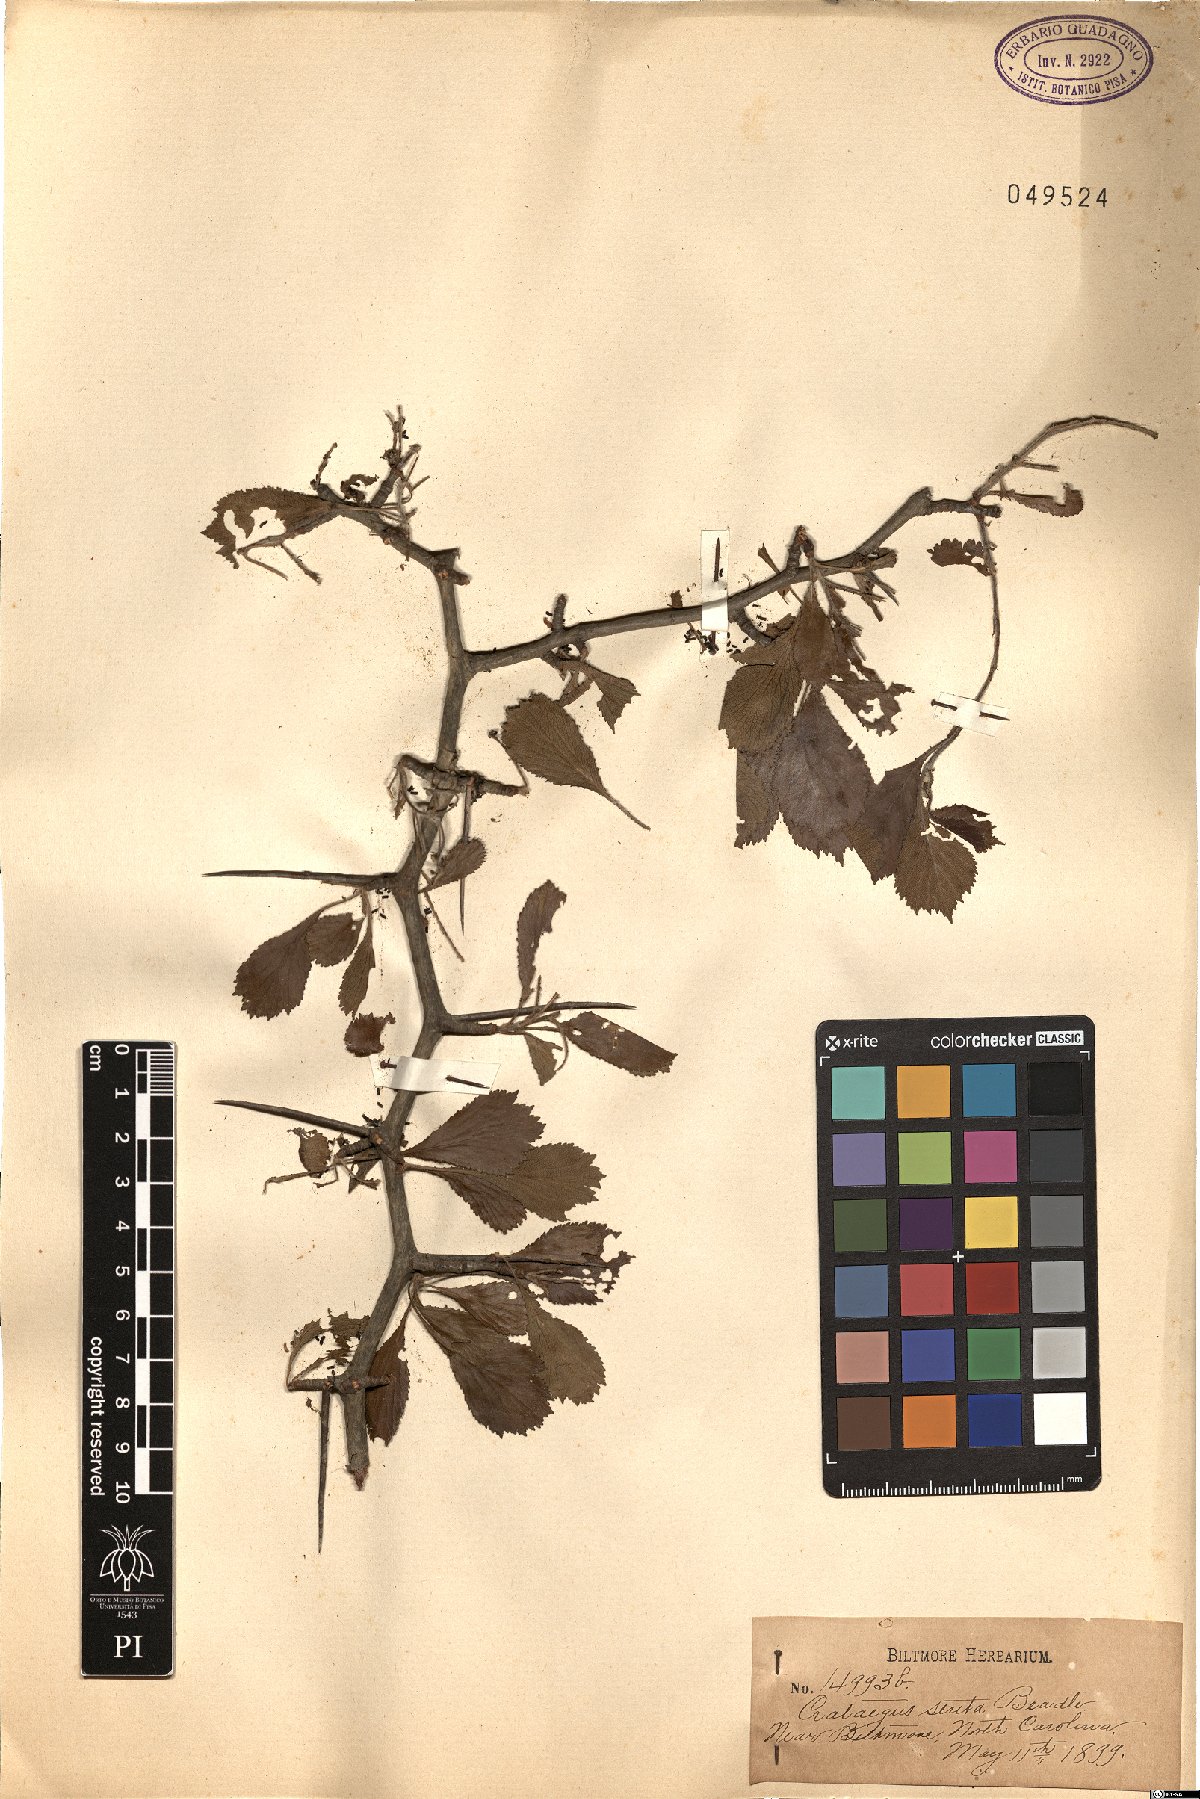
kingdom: Plantae
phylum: Tracheophyta
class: Magnoliopsida
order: Rosales
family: Rosaceae
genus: Crataegus
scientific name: Crataegus senta
